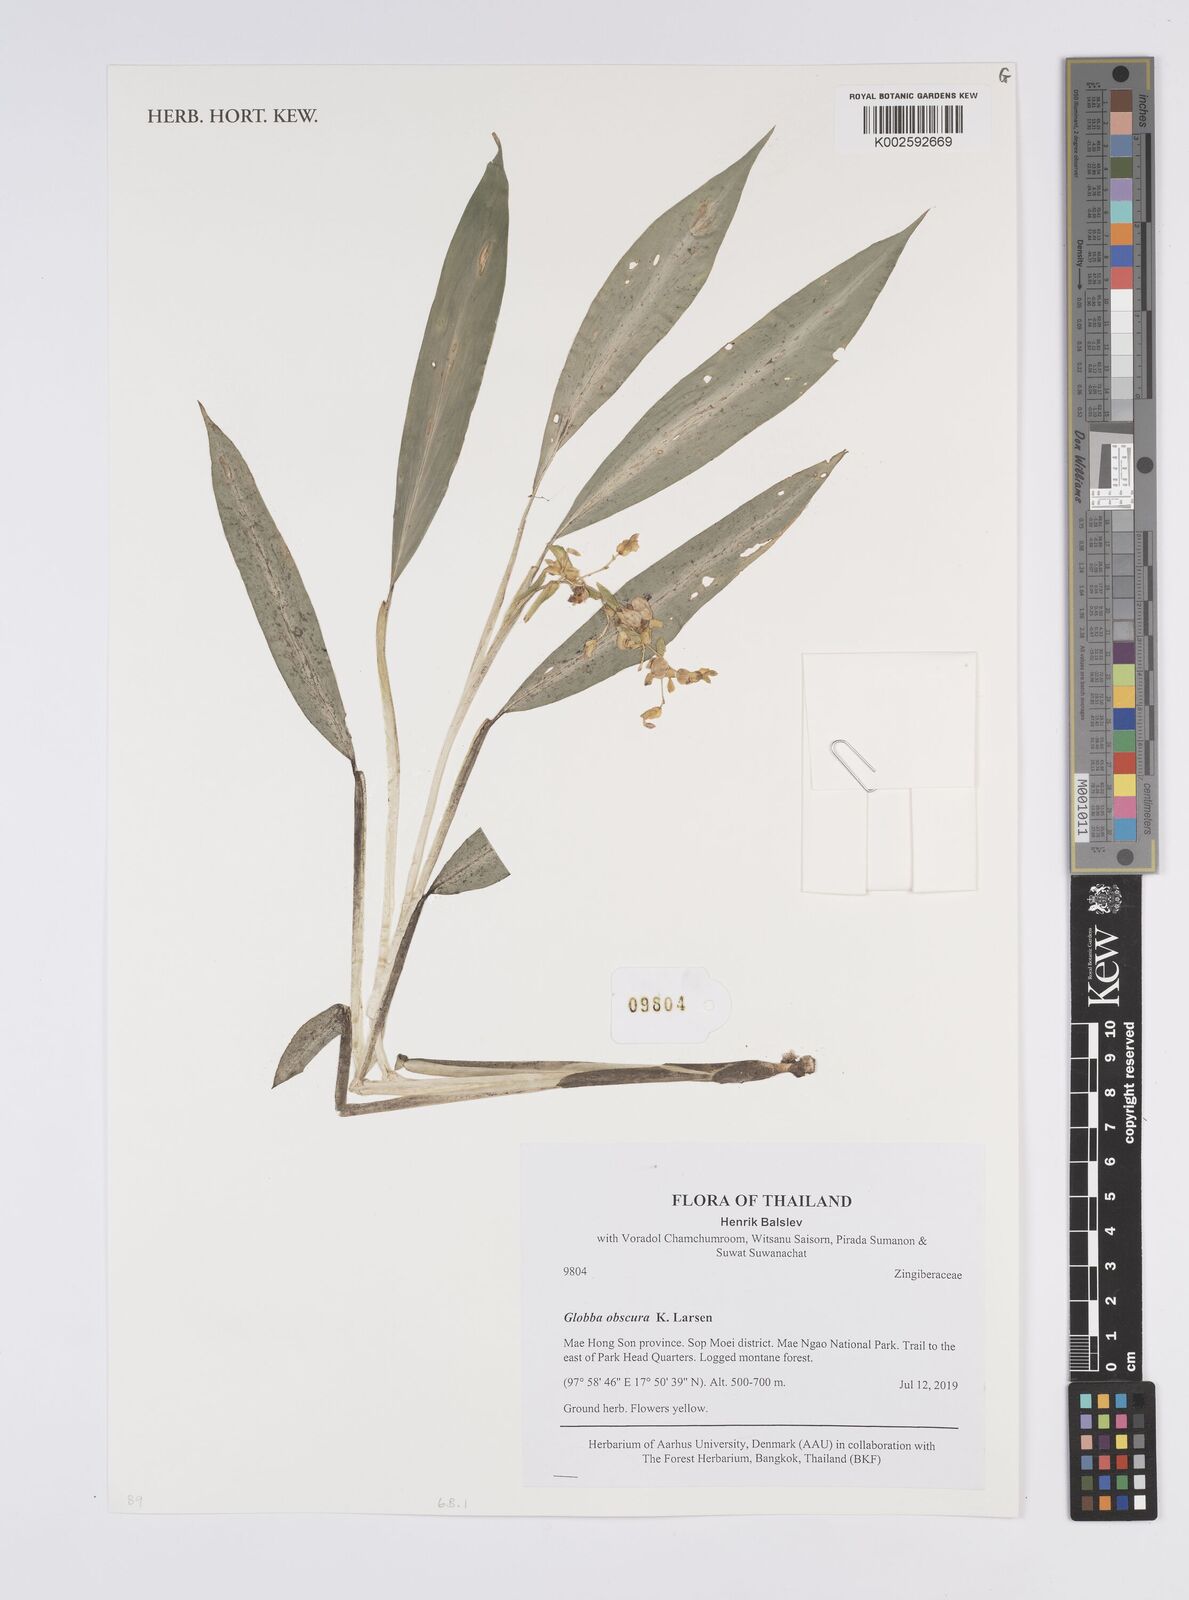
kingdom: Plantae
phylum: Tracheophyta
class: Liliopsida
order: Zingiberales
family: Zingiberaceae
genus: Globba
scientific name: Globba obscura
